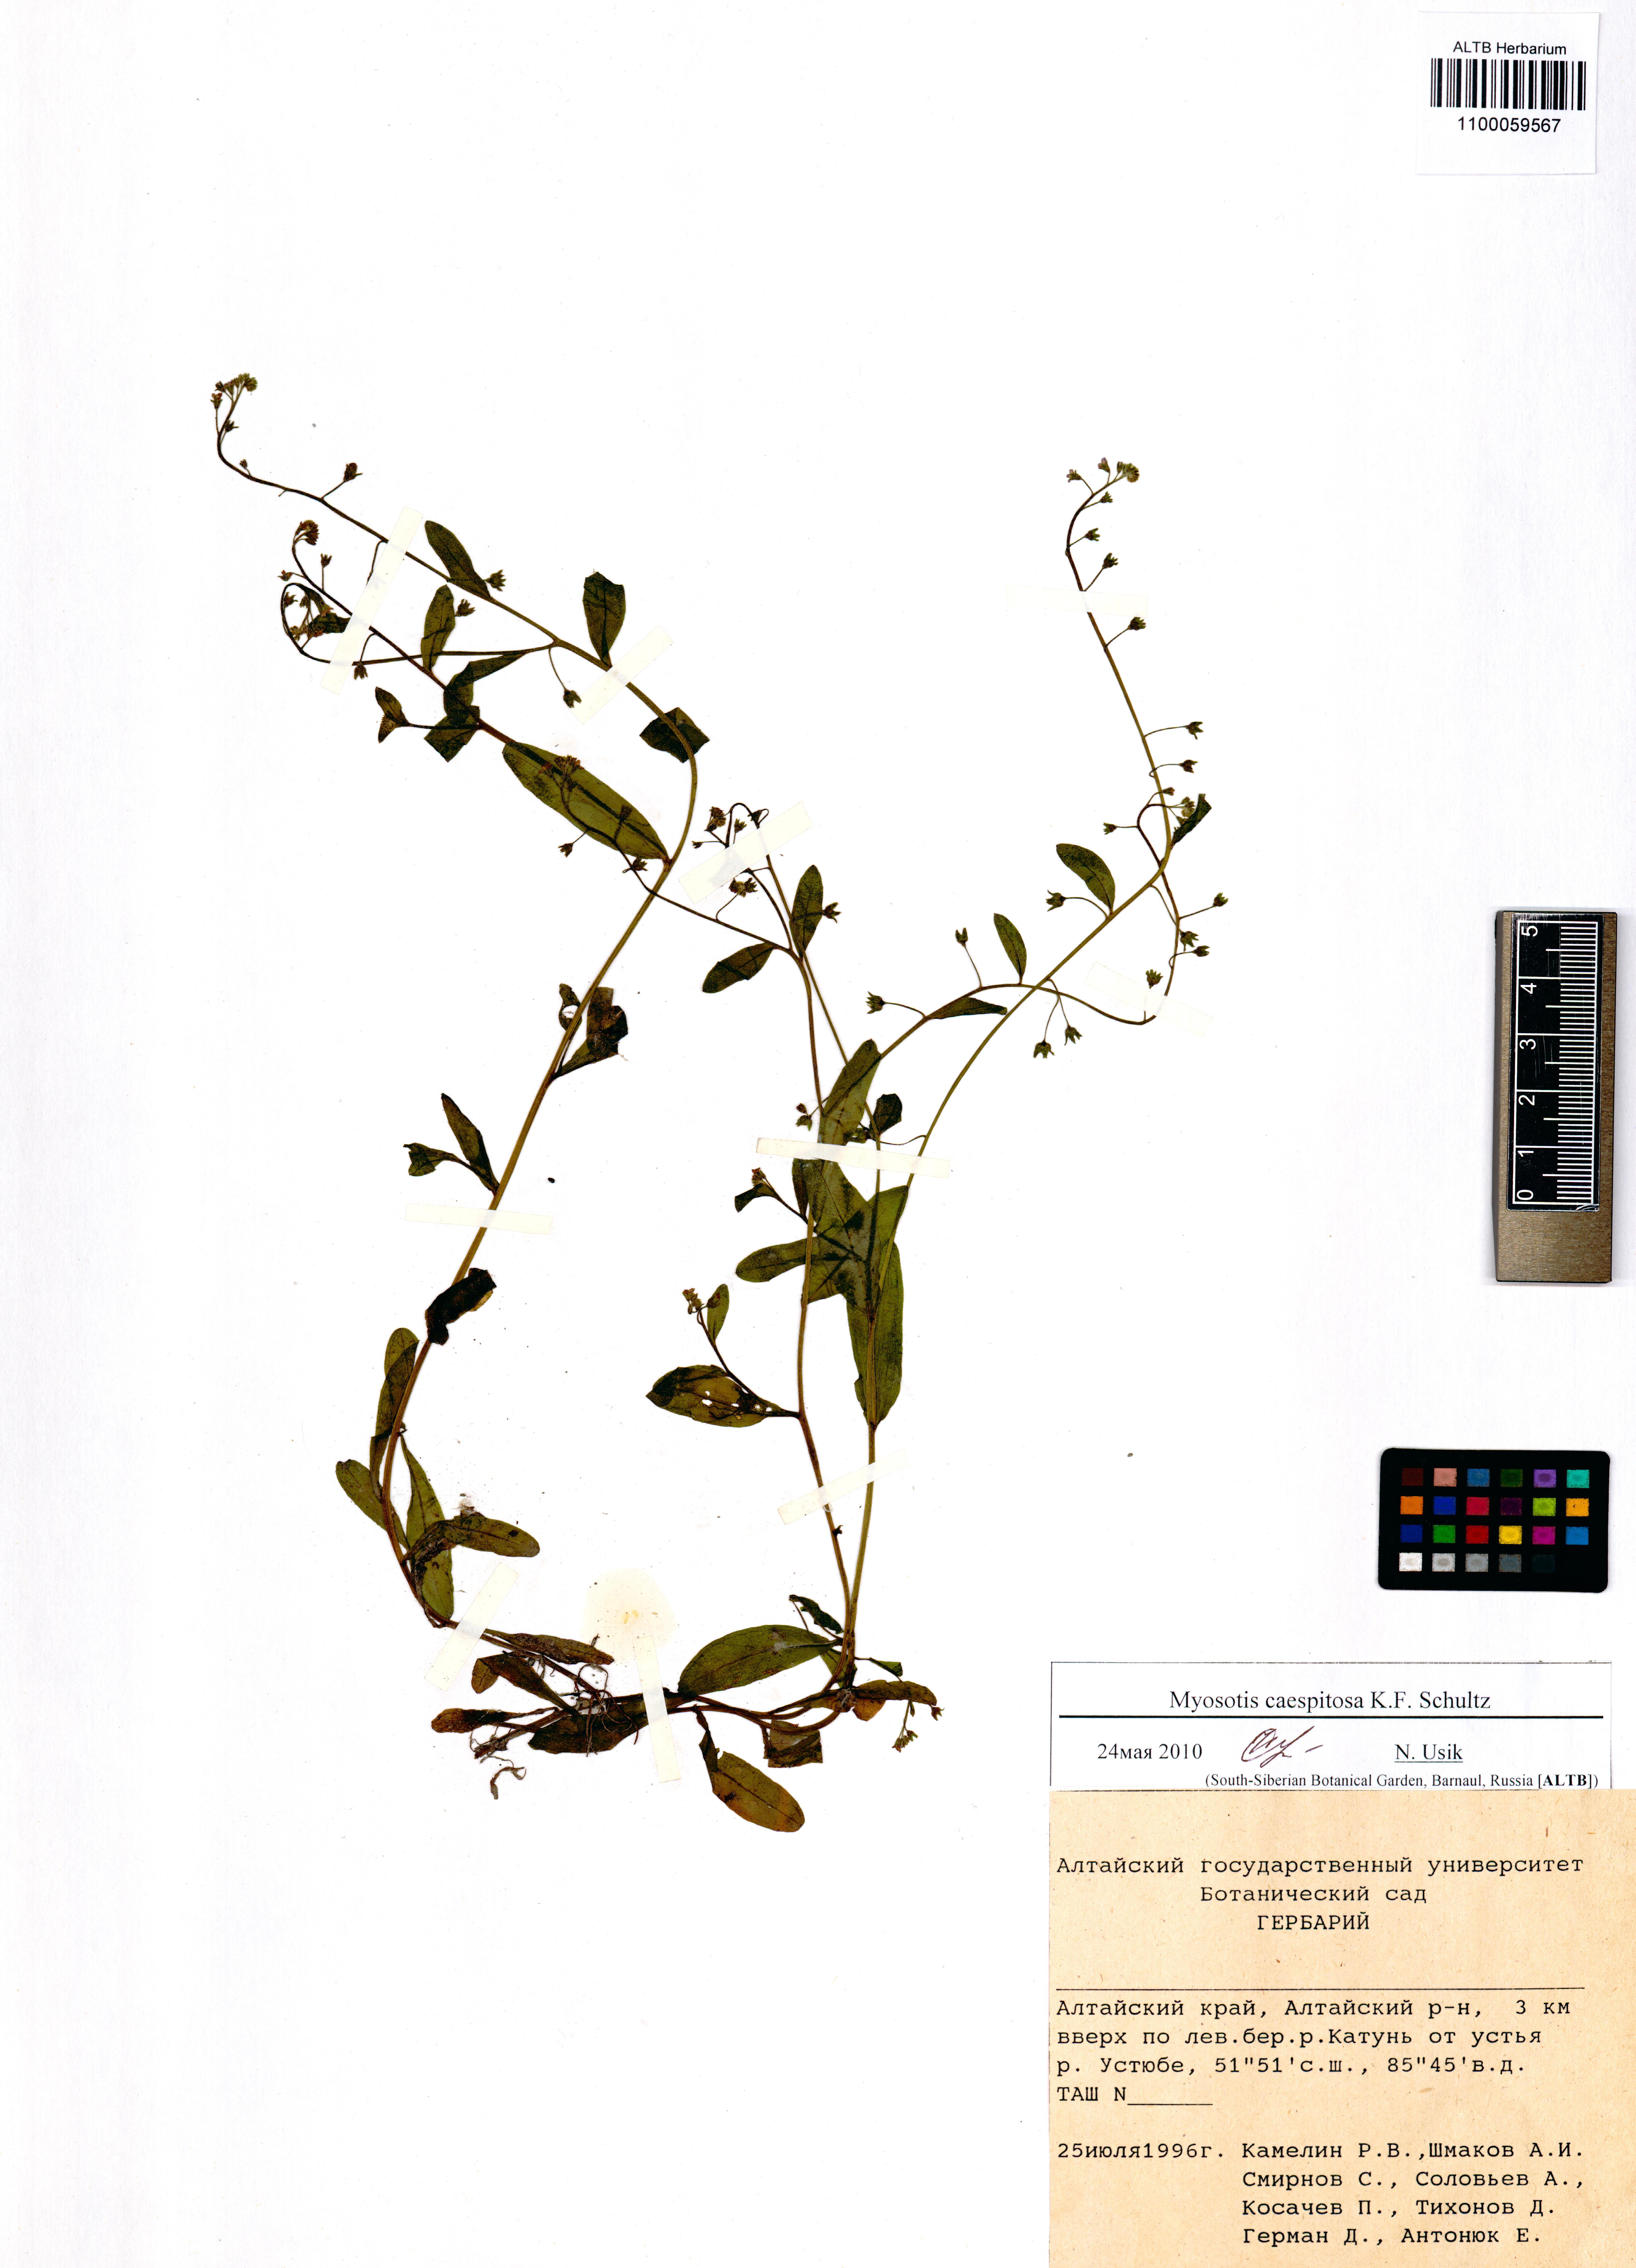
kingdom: Plantae
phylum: Tracheophyta
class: Magnoliopsida
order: Boraginales
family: Boraginaceae
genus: Myosotis
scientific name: Myosotis laxa
